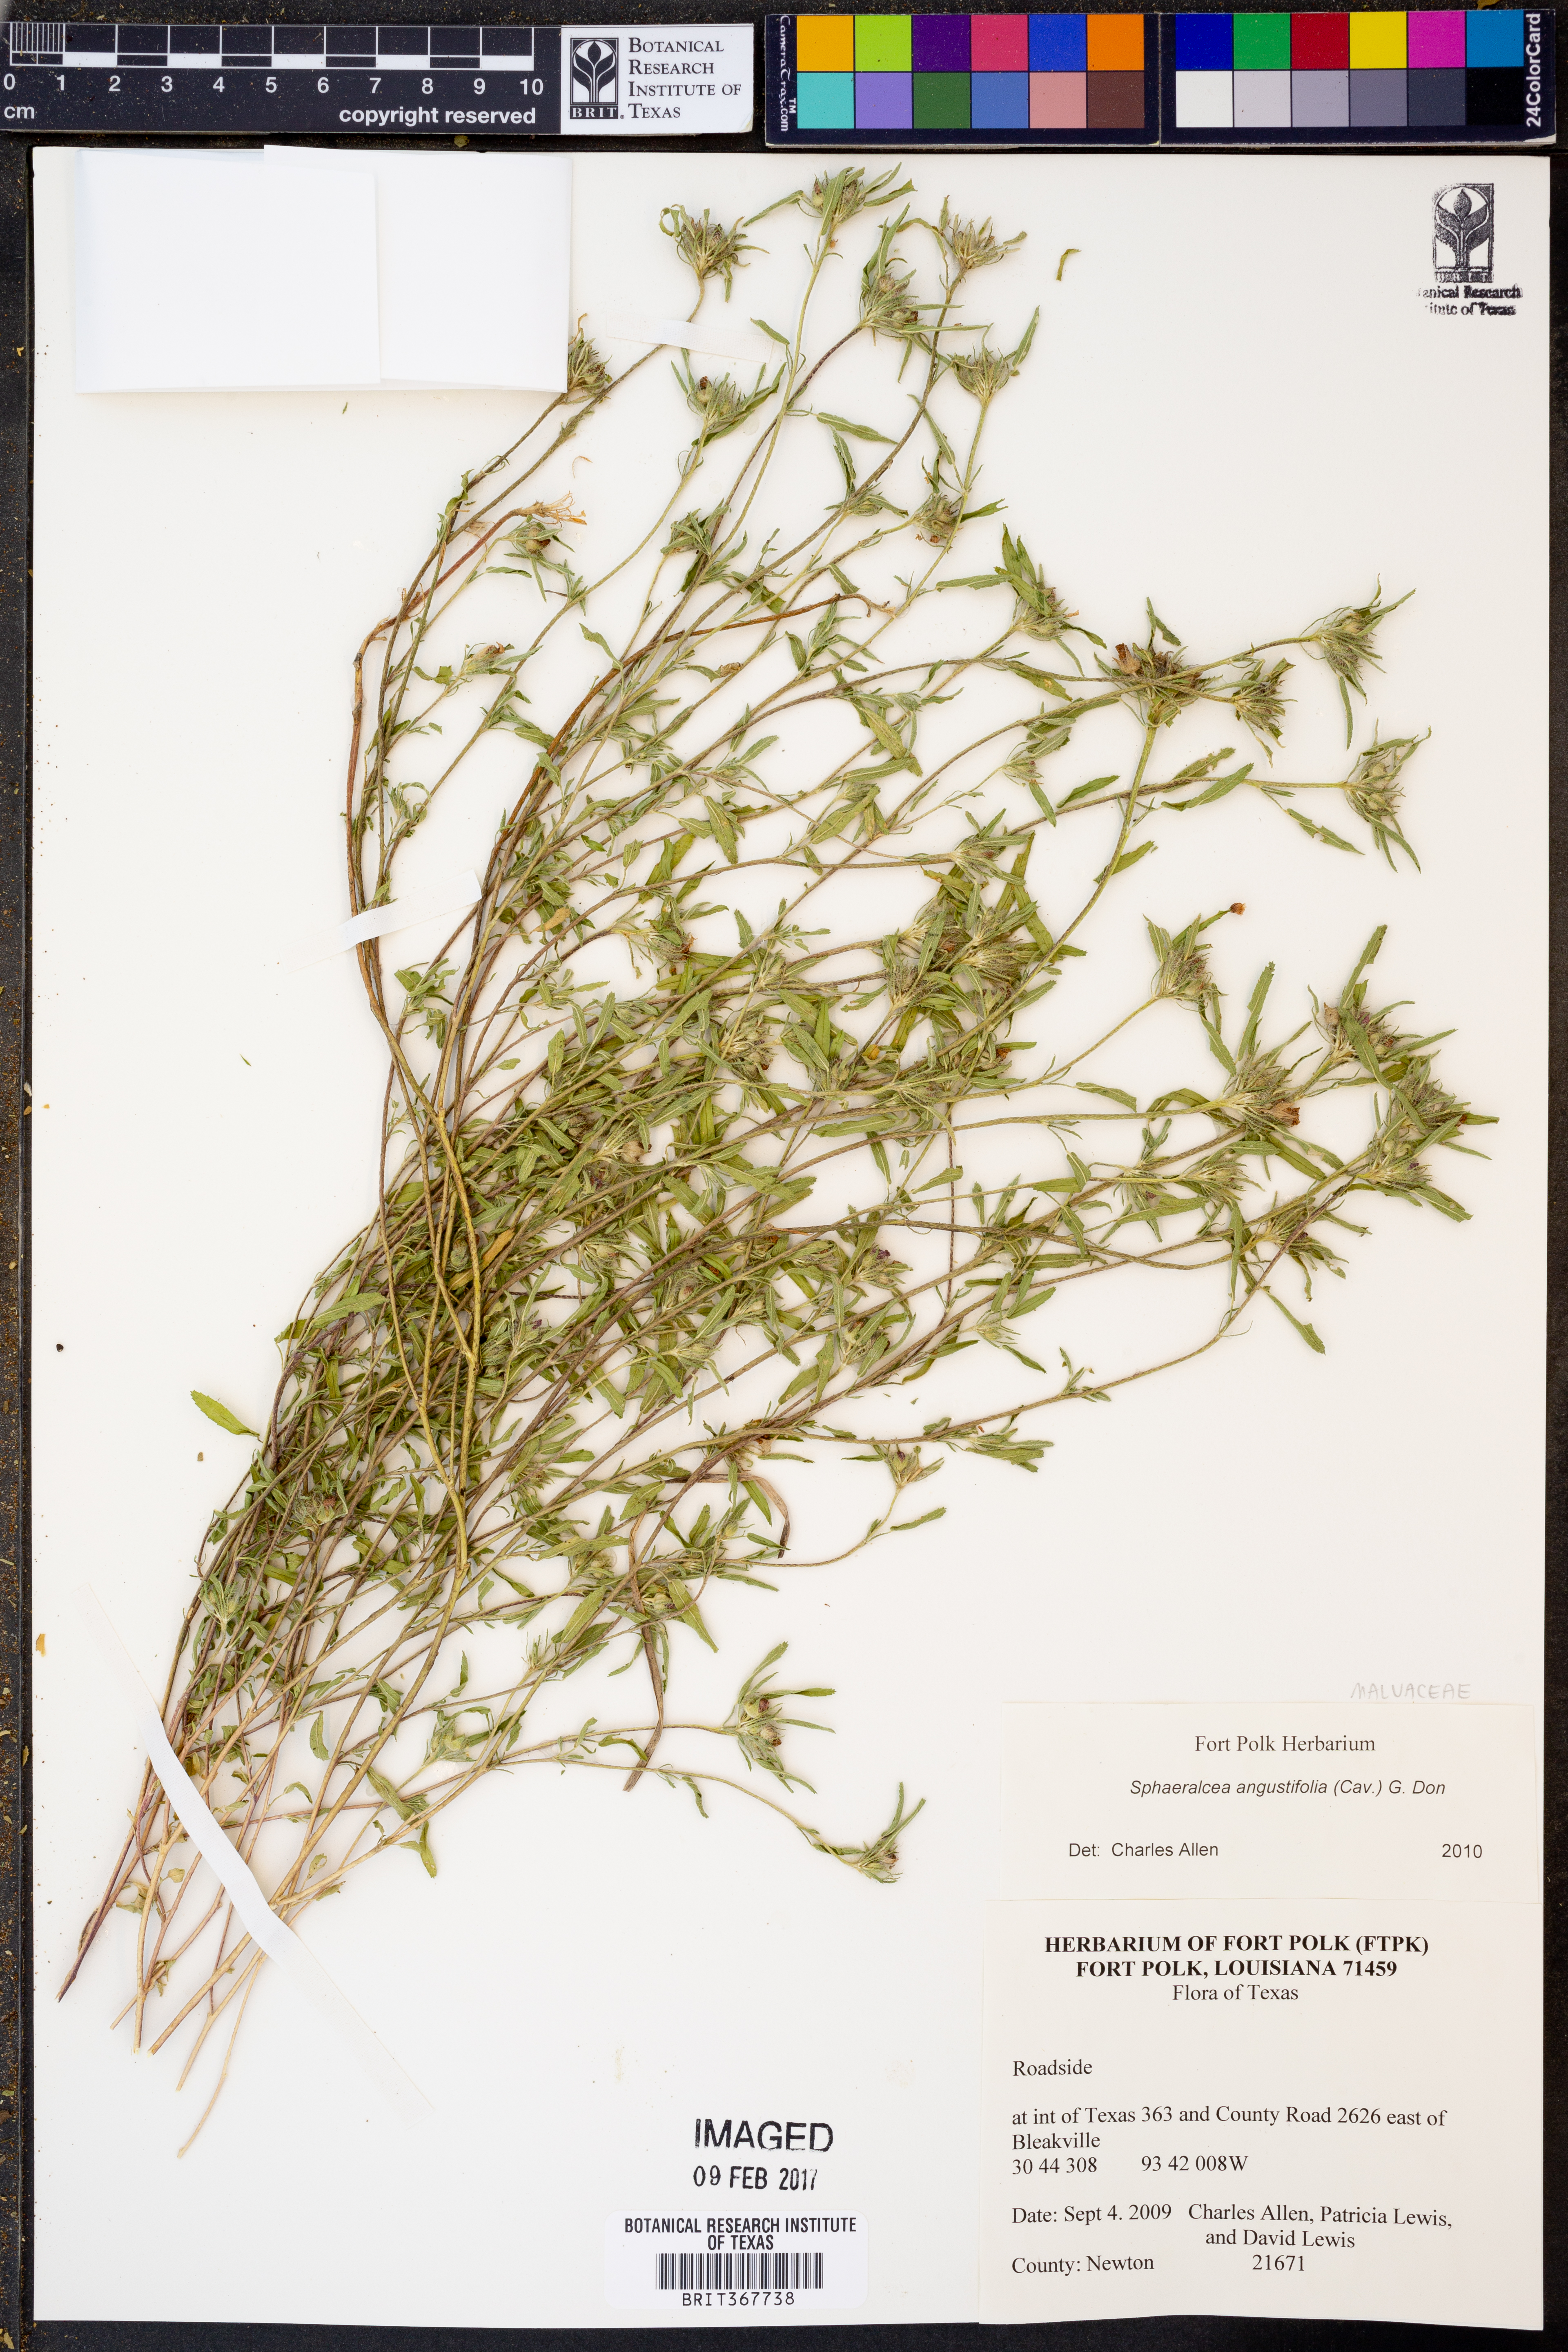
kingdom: Plantae
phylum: Tracheophyta
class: Magnoliopsida
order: Malvales
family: Malvaceae
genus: Sphaeralcea
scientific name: Sphaeralcea angustifolia
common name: Copper globe-mallow
